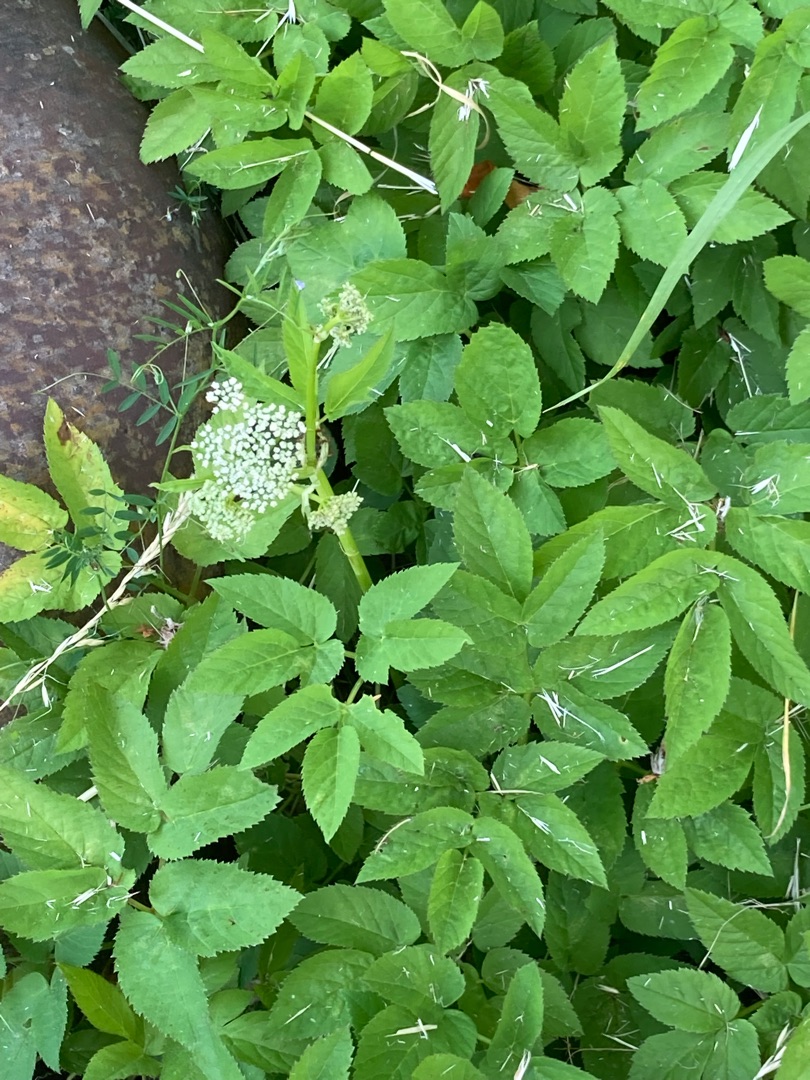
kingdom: Plantae
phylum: Tracheophyta
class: Magnoliopsida
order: Apiales
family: Apiaceae
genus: Aegopodium
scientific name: Aegopodium podagraria
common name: Skvalderkål
